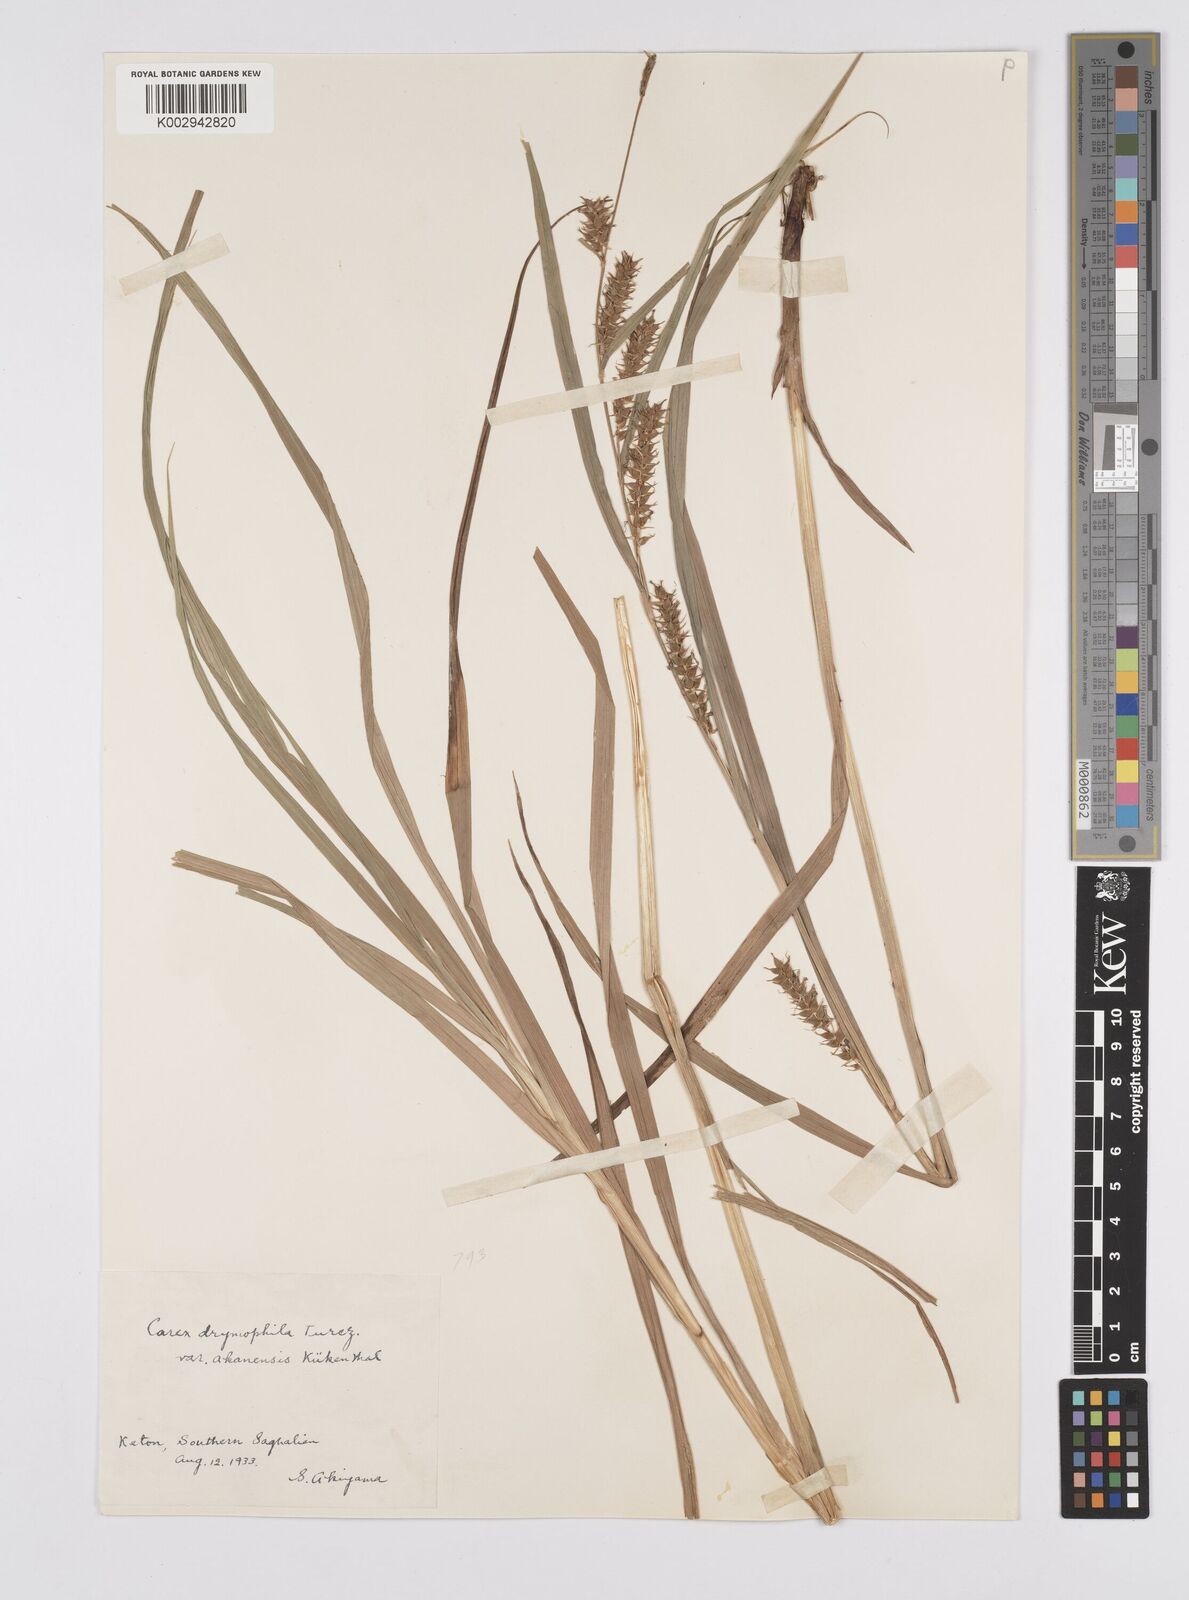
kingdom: Plantae
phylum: Tracheophyta
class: Liliopsida
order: Poales
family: Cyperaceae
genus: Carex
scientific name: Carex drymophila
